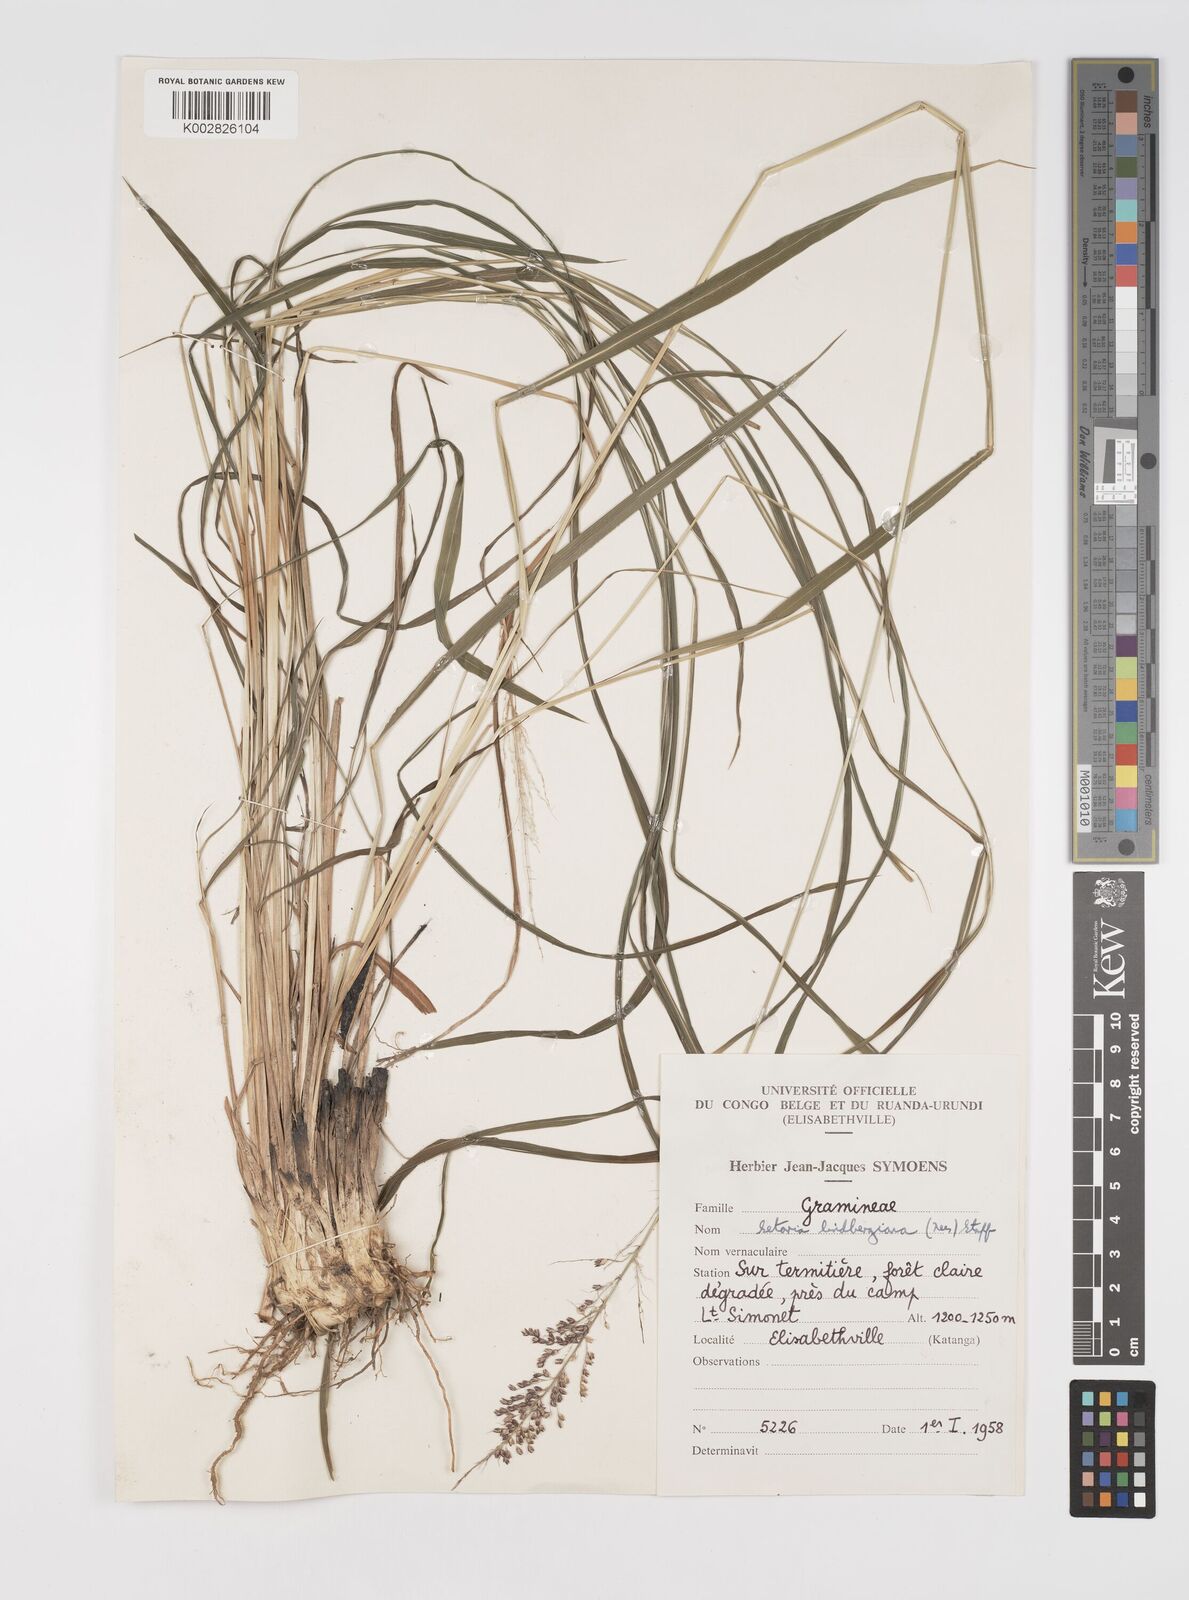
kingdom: Plantae
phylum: Tracheophyta
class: Liliopsida
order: Poales
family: Poaceae
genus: Setaria
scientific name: Setaria lindenbergiana
